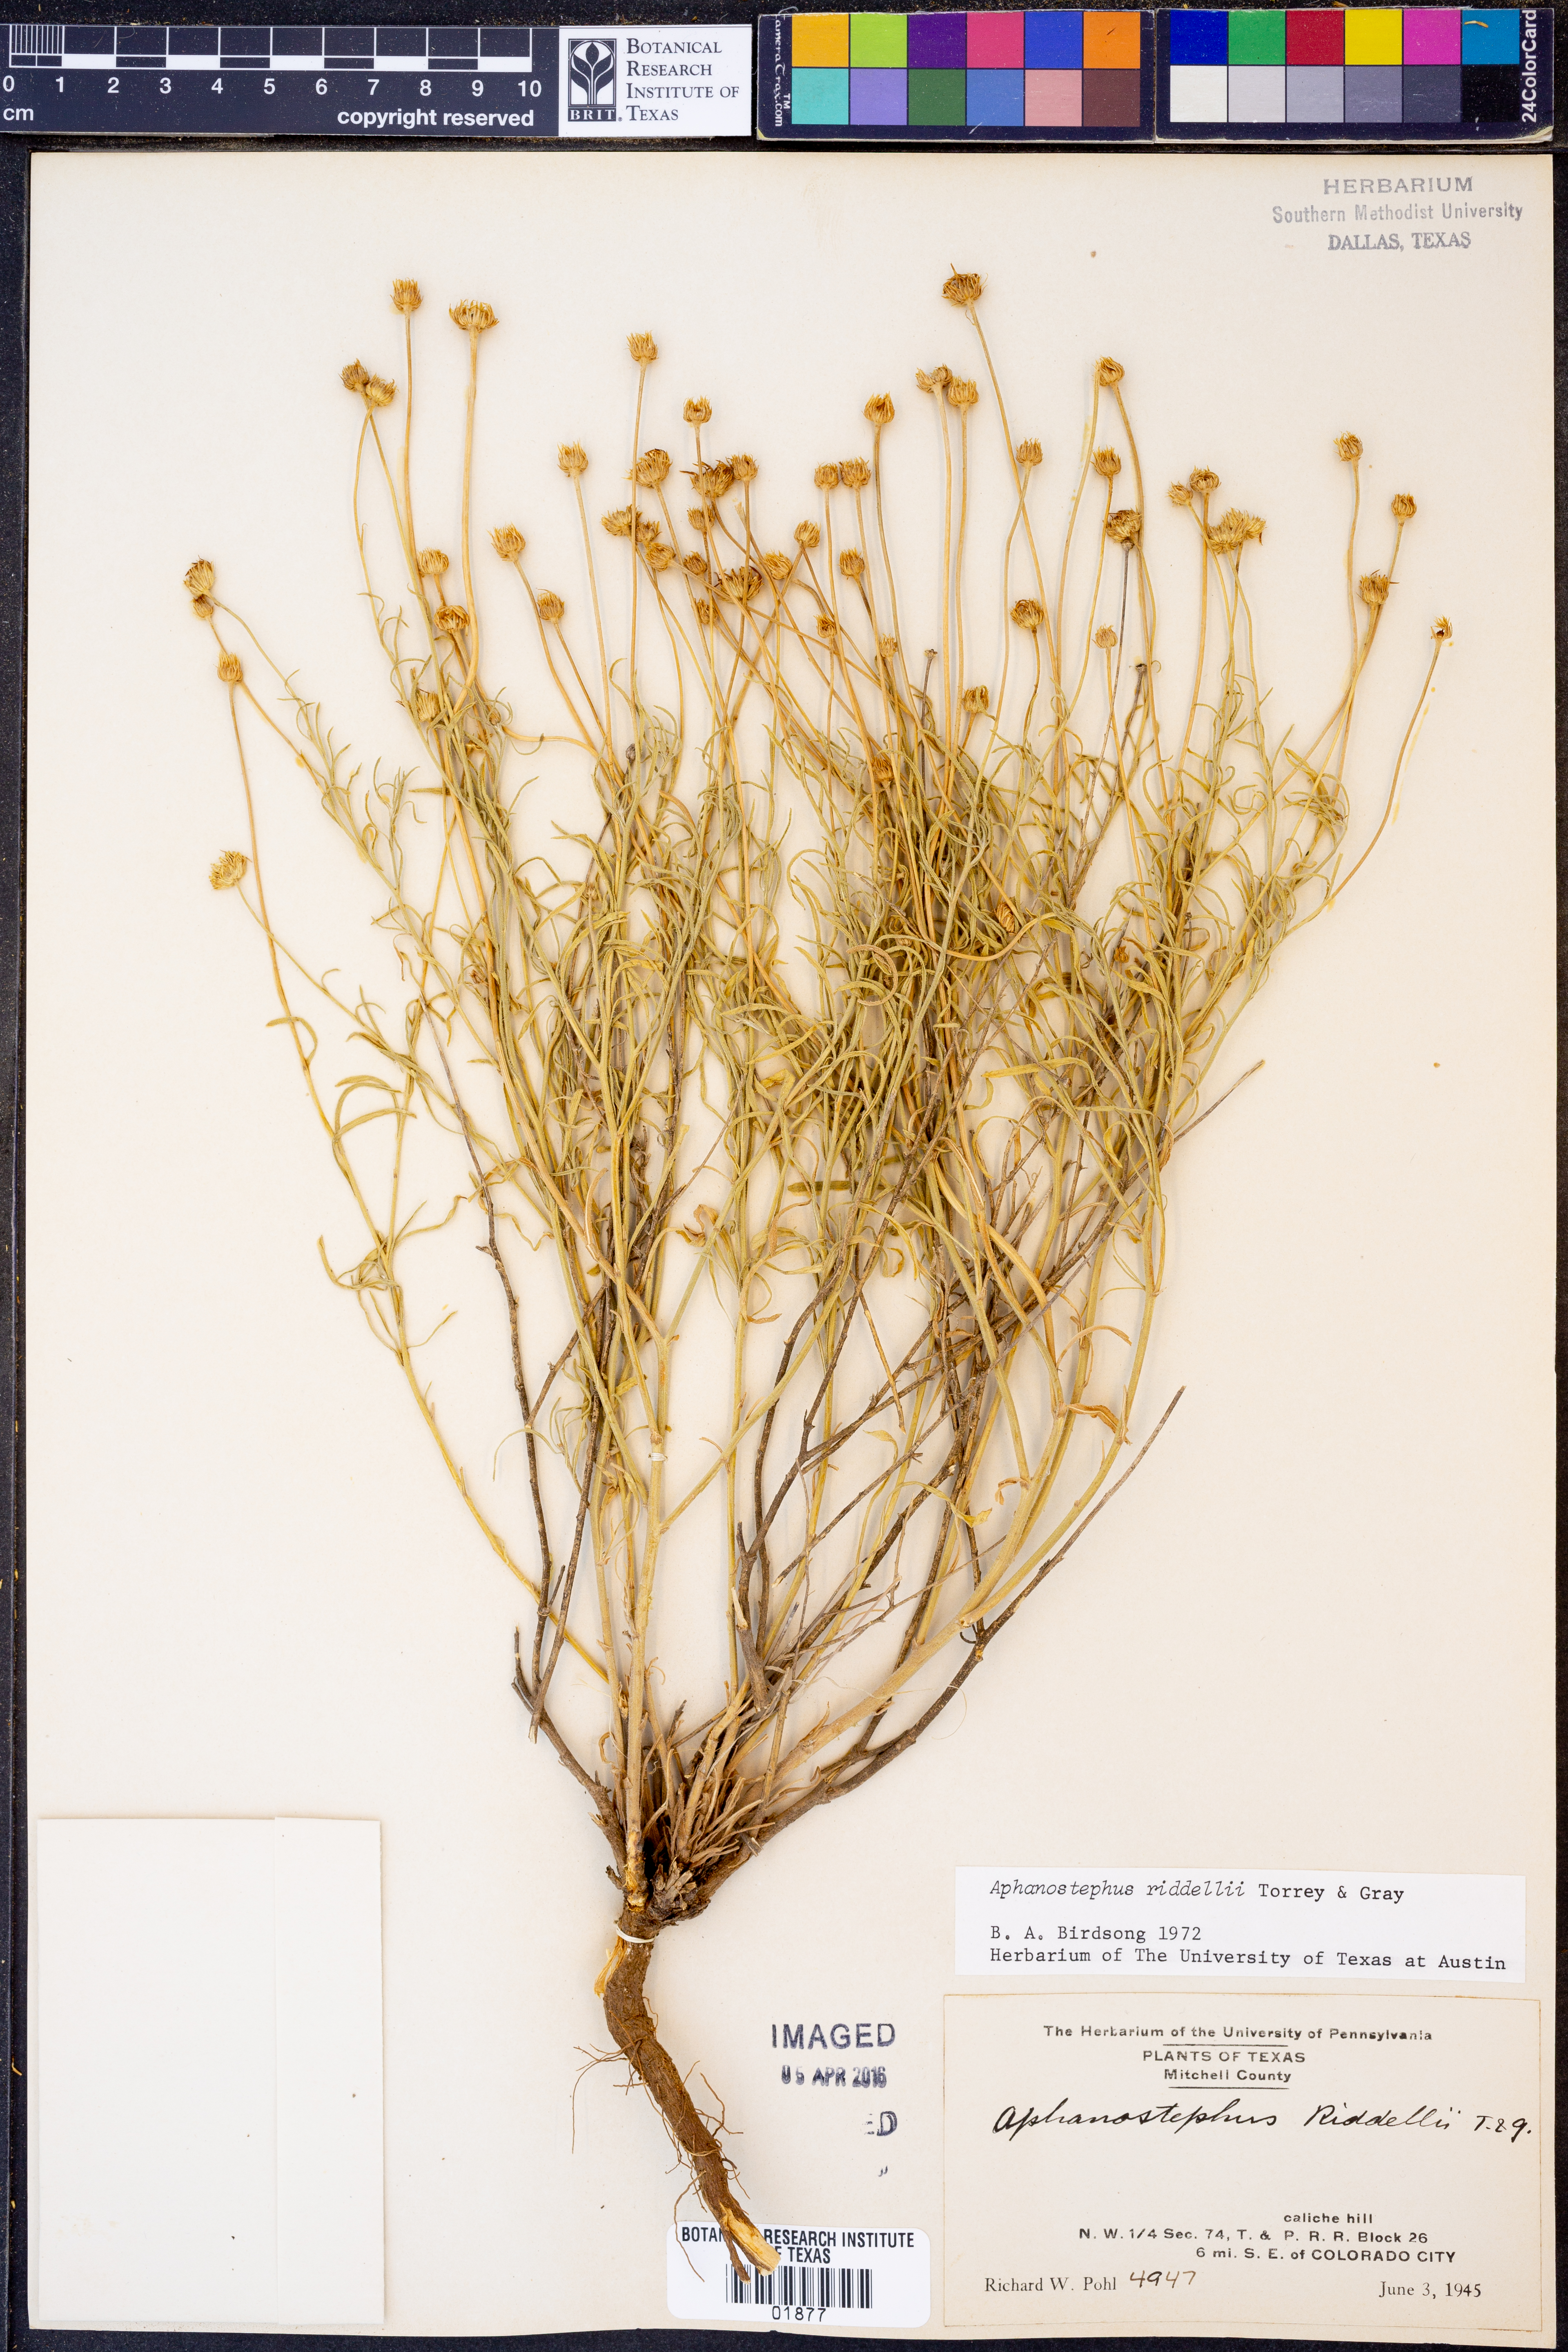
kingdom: Plantae
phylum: Tracheophyta
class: Magnoliopsida
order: Asterales
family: Asteraceae
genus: Aphanostephus
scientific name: Aphanostephus riddellii
